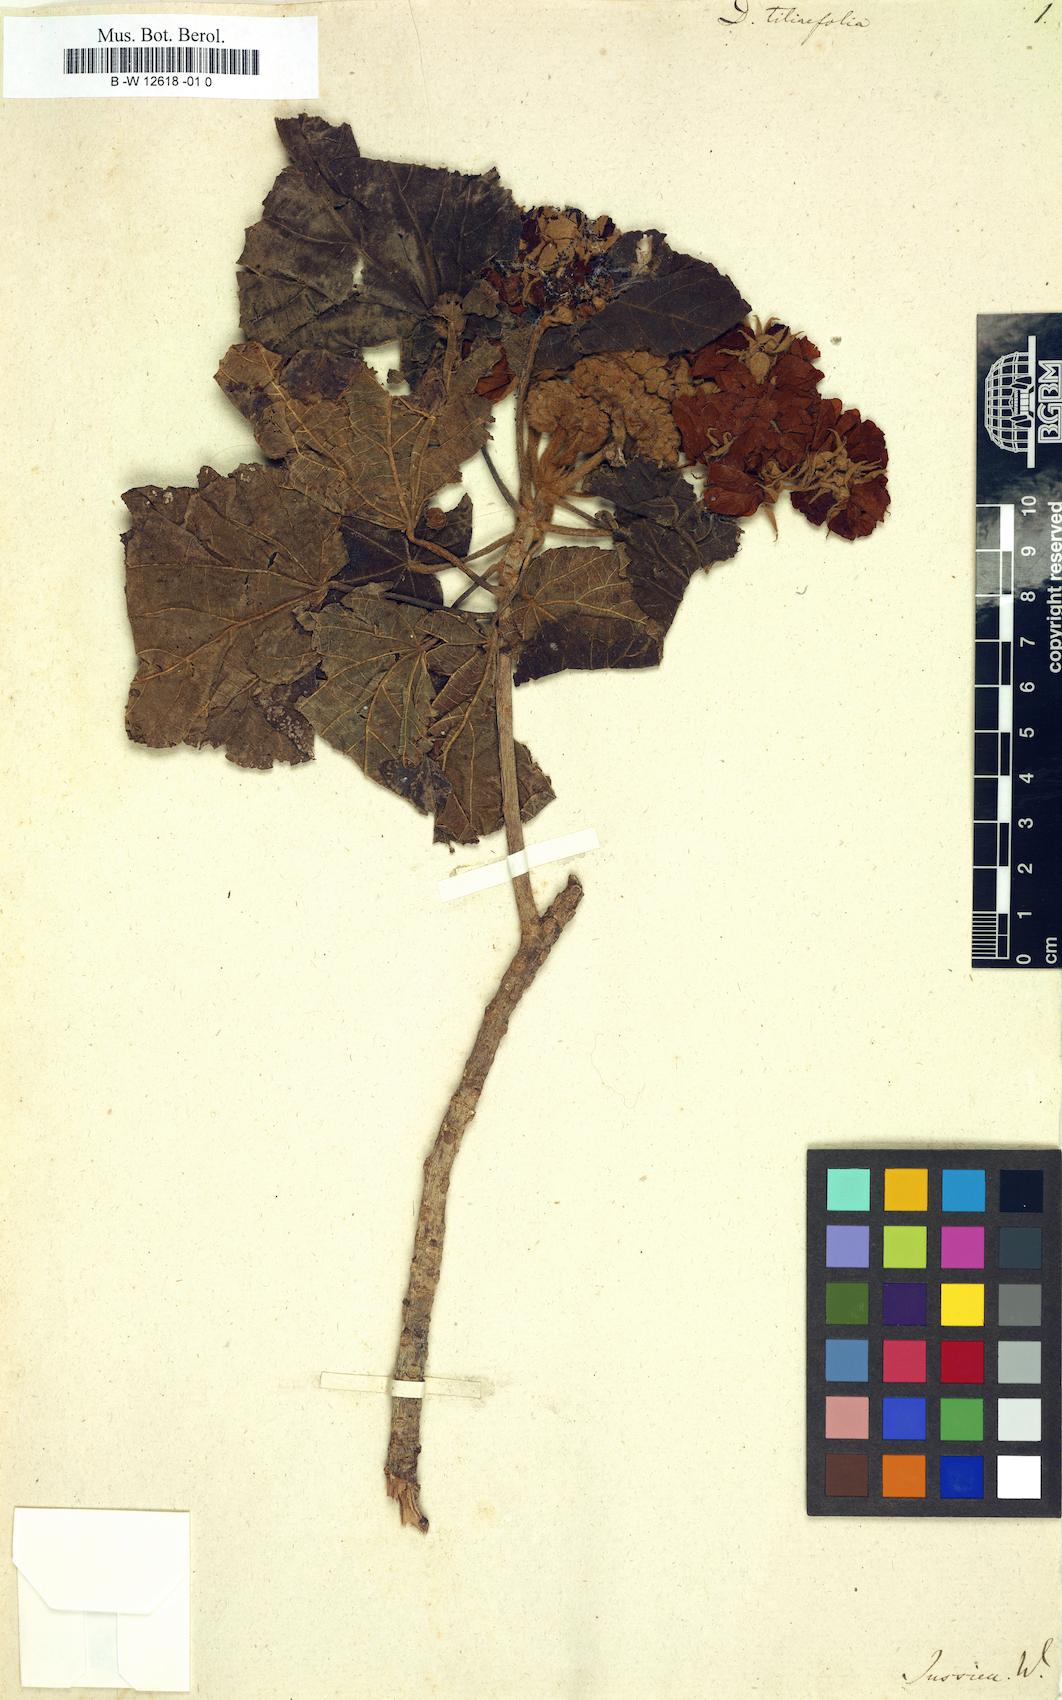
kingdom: Plantae
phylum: Tracheophyta
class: Magnoliopsida
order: Malvales
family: Malvaceae
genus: Dombeya
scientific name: Dombeya acutangula
